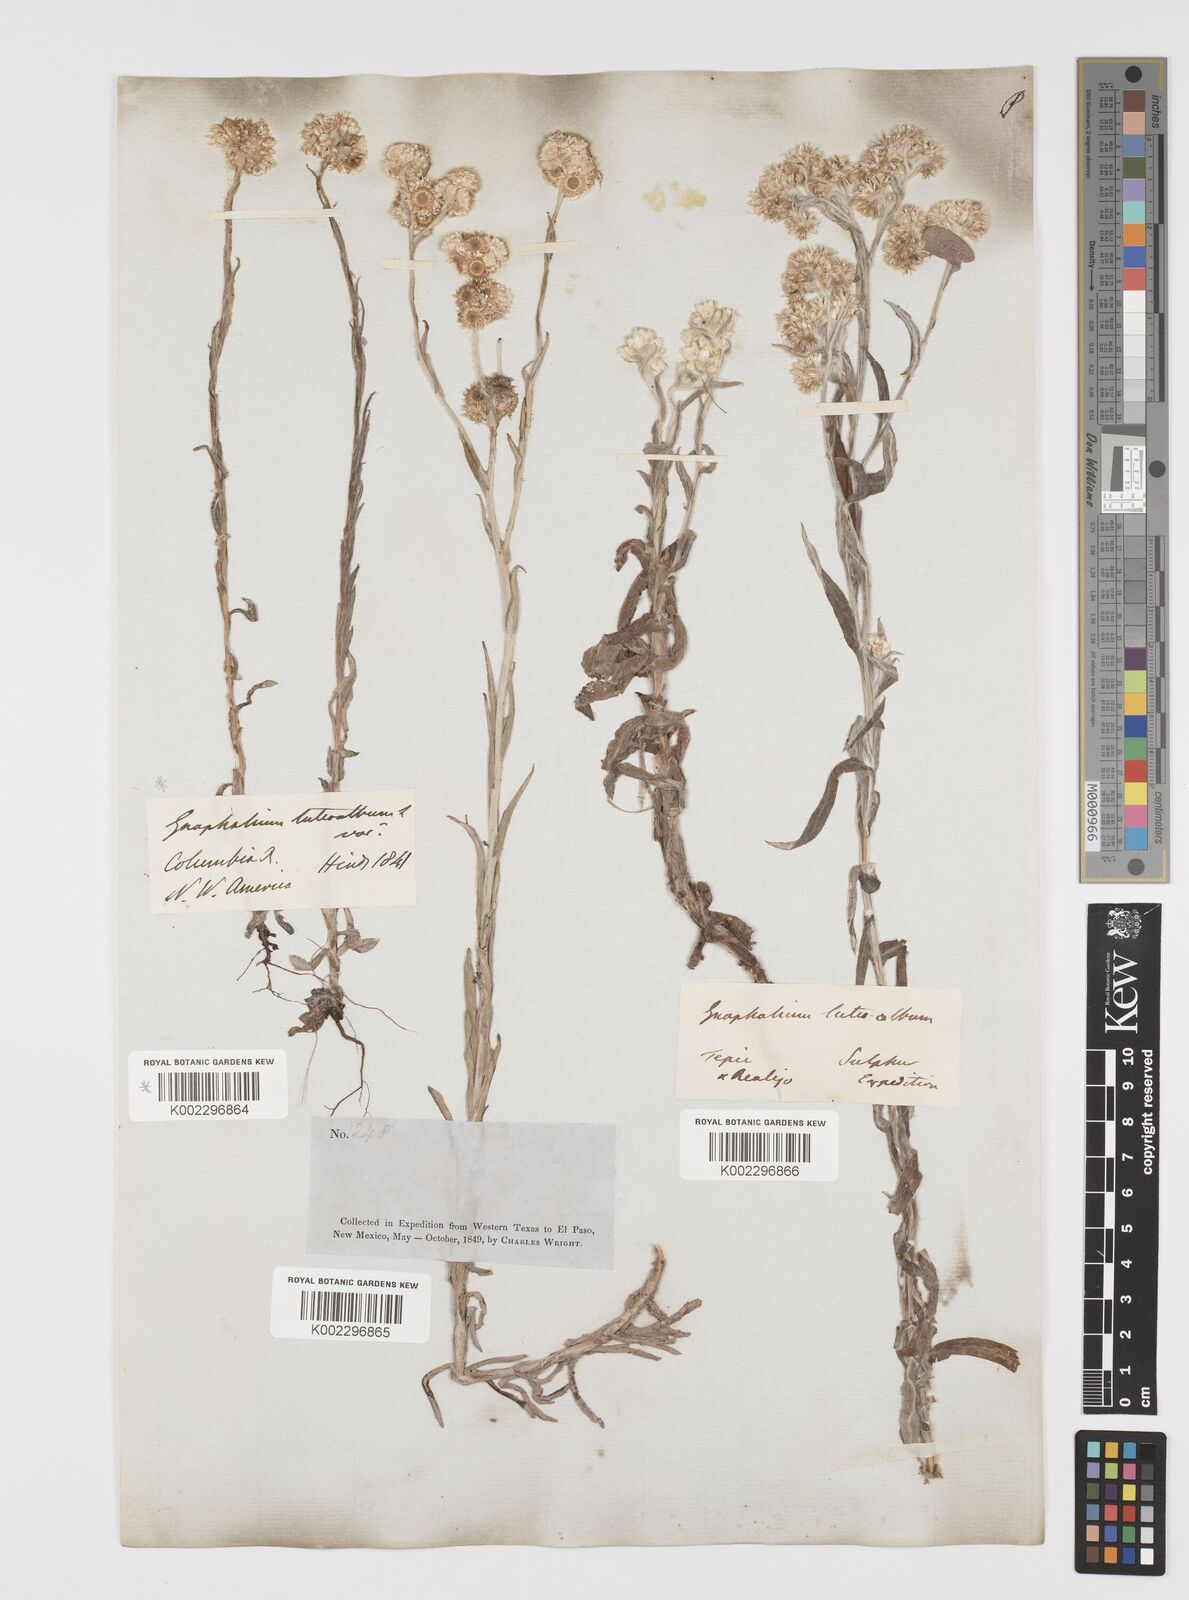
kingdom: Plantae
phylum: Tracheophyta
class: Magnoliopsida
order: Asterales
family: Asteraceae
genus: Helichrysum
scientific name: Helichrysum luteoalbum
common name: Daisy
